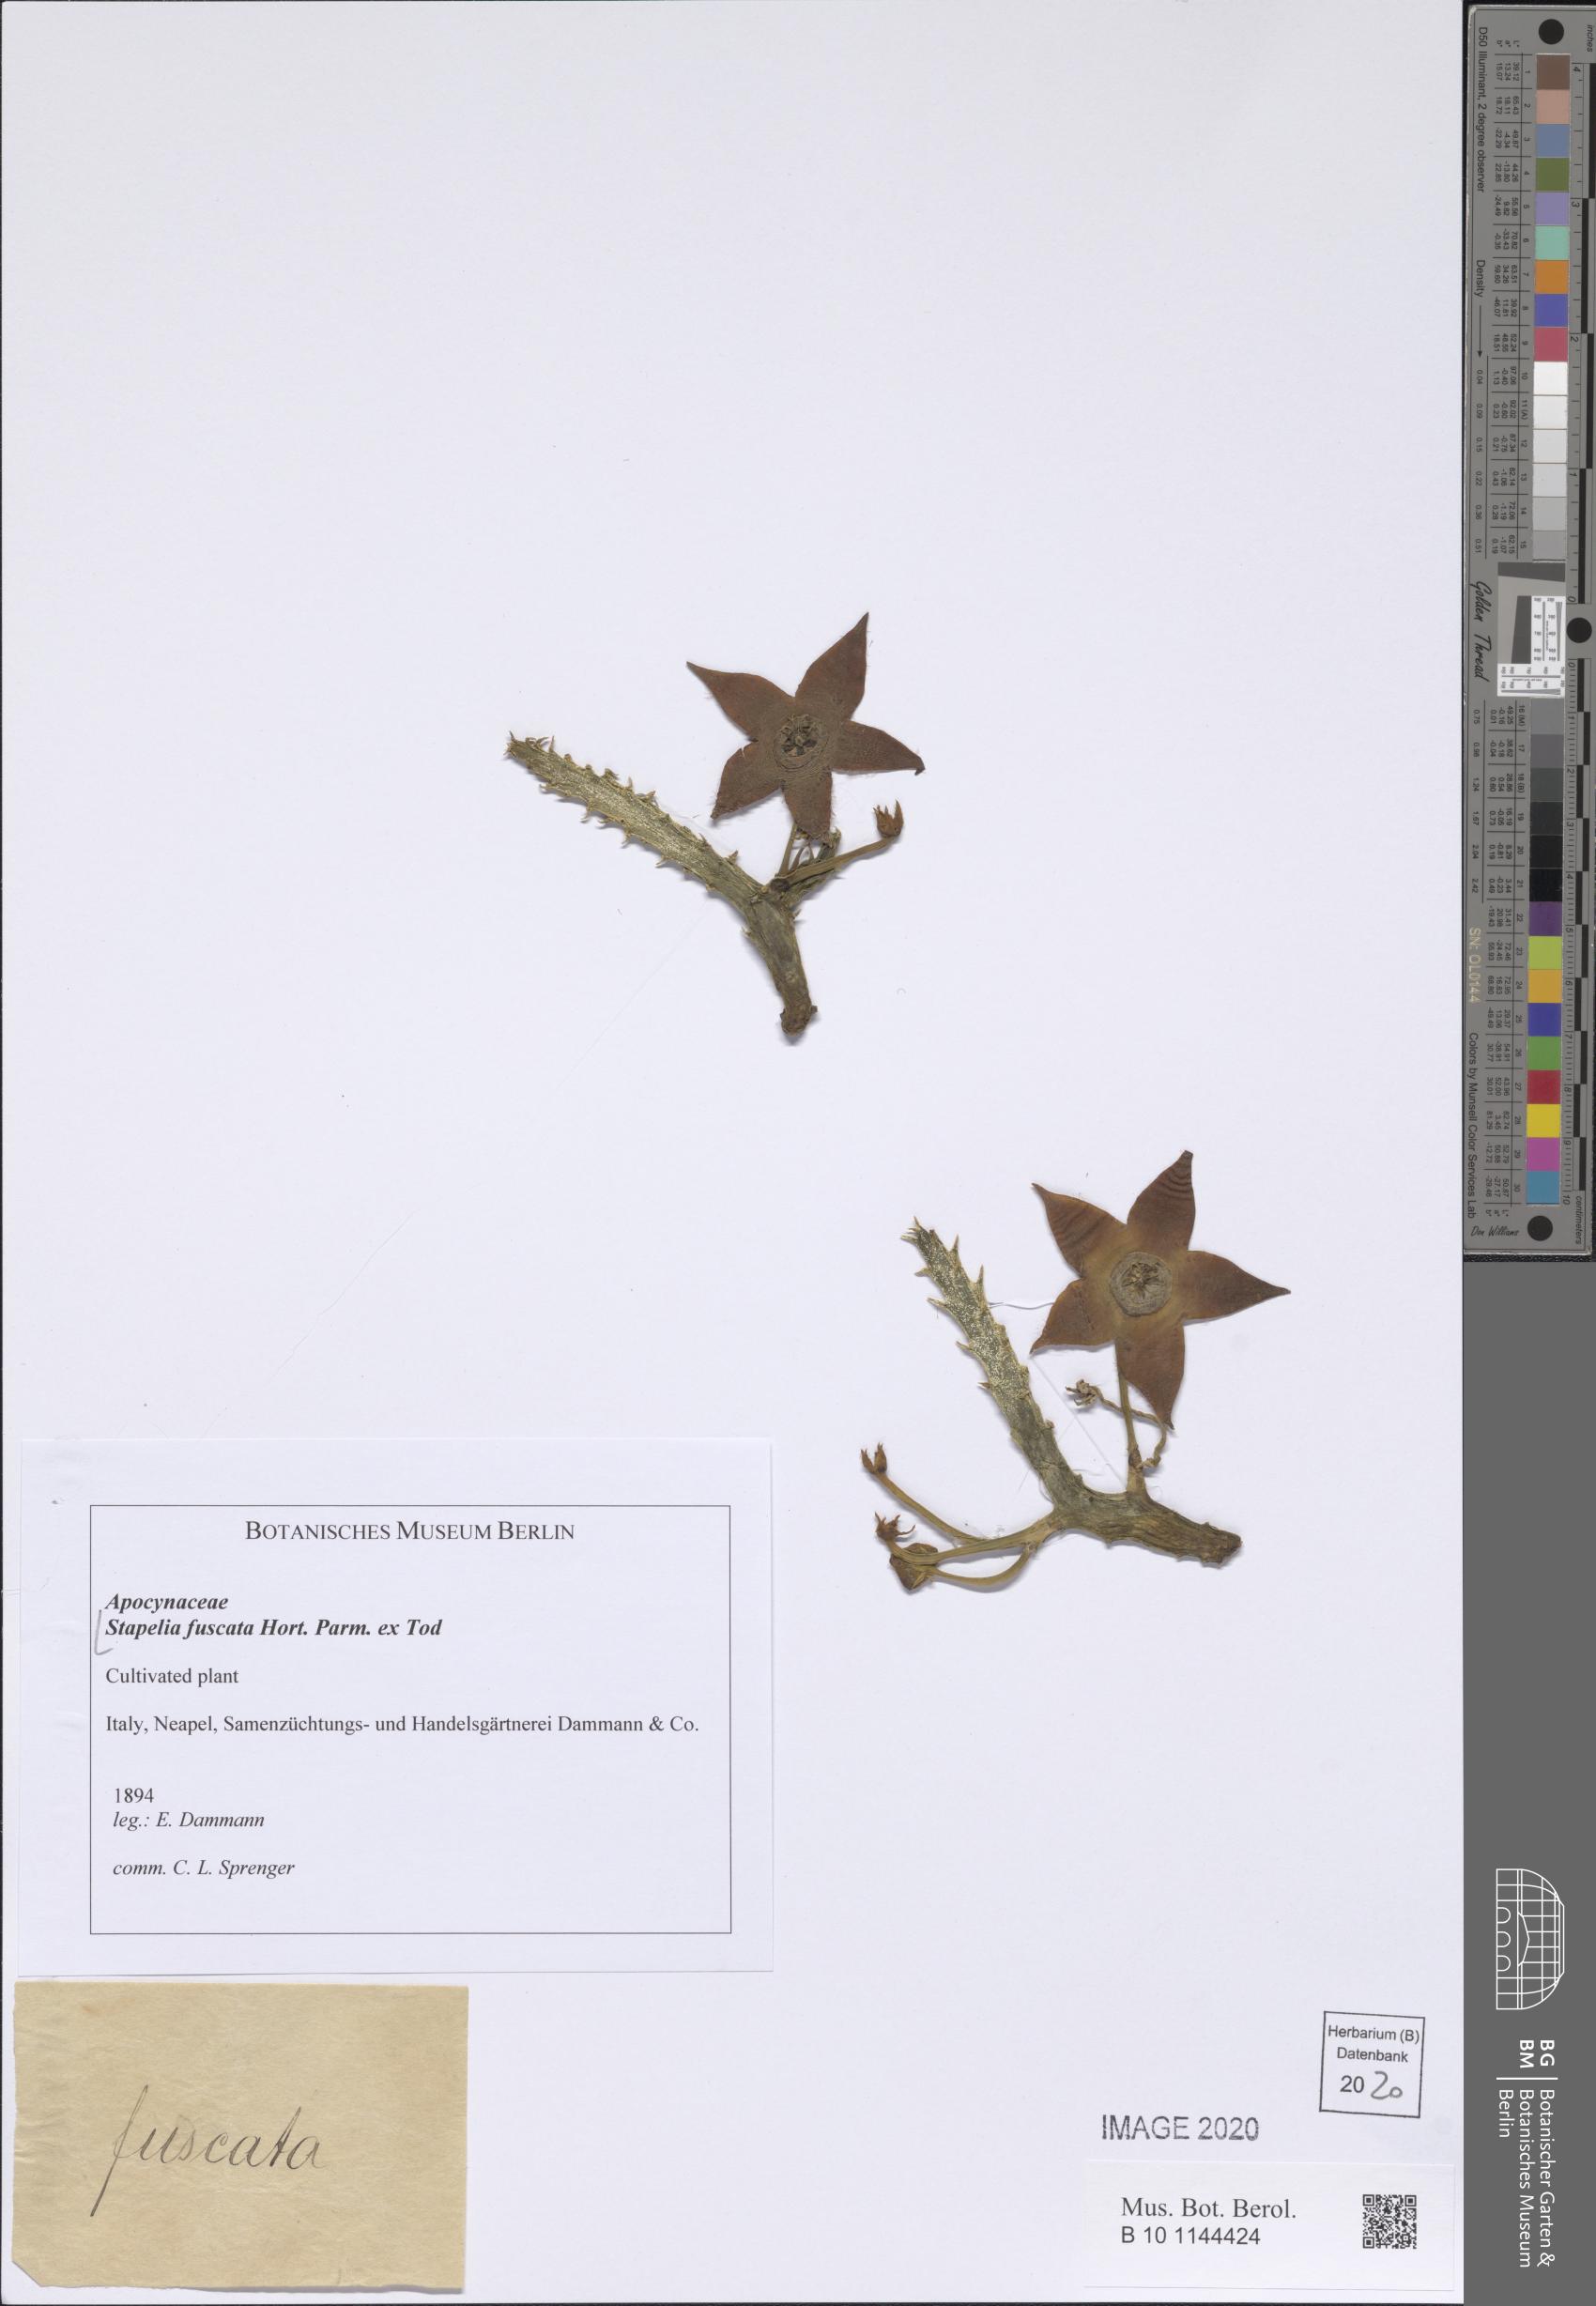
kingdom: Plantae
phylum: Tracheophyta
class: Magnoliopsida
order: Gentianales
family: Apocynaceae
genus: Ceropegia
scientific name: Ceropegia revoluta
